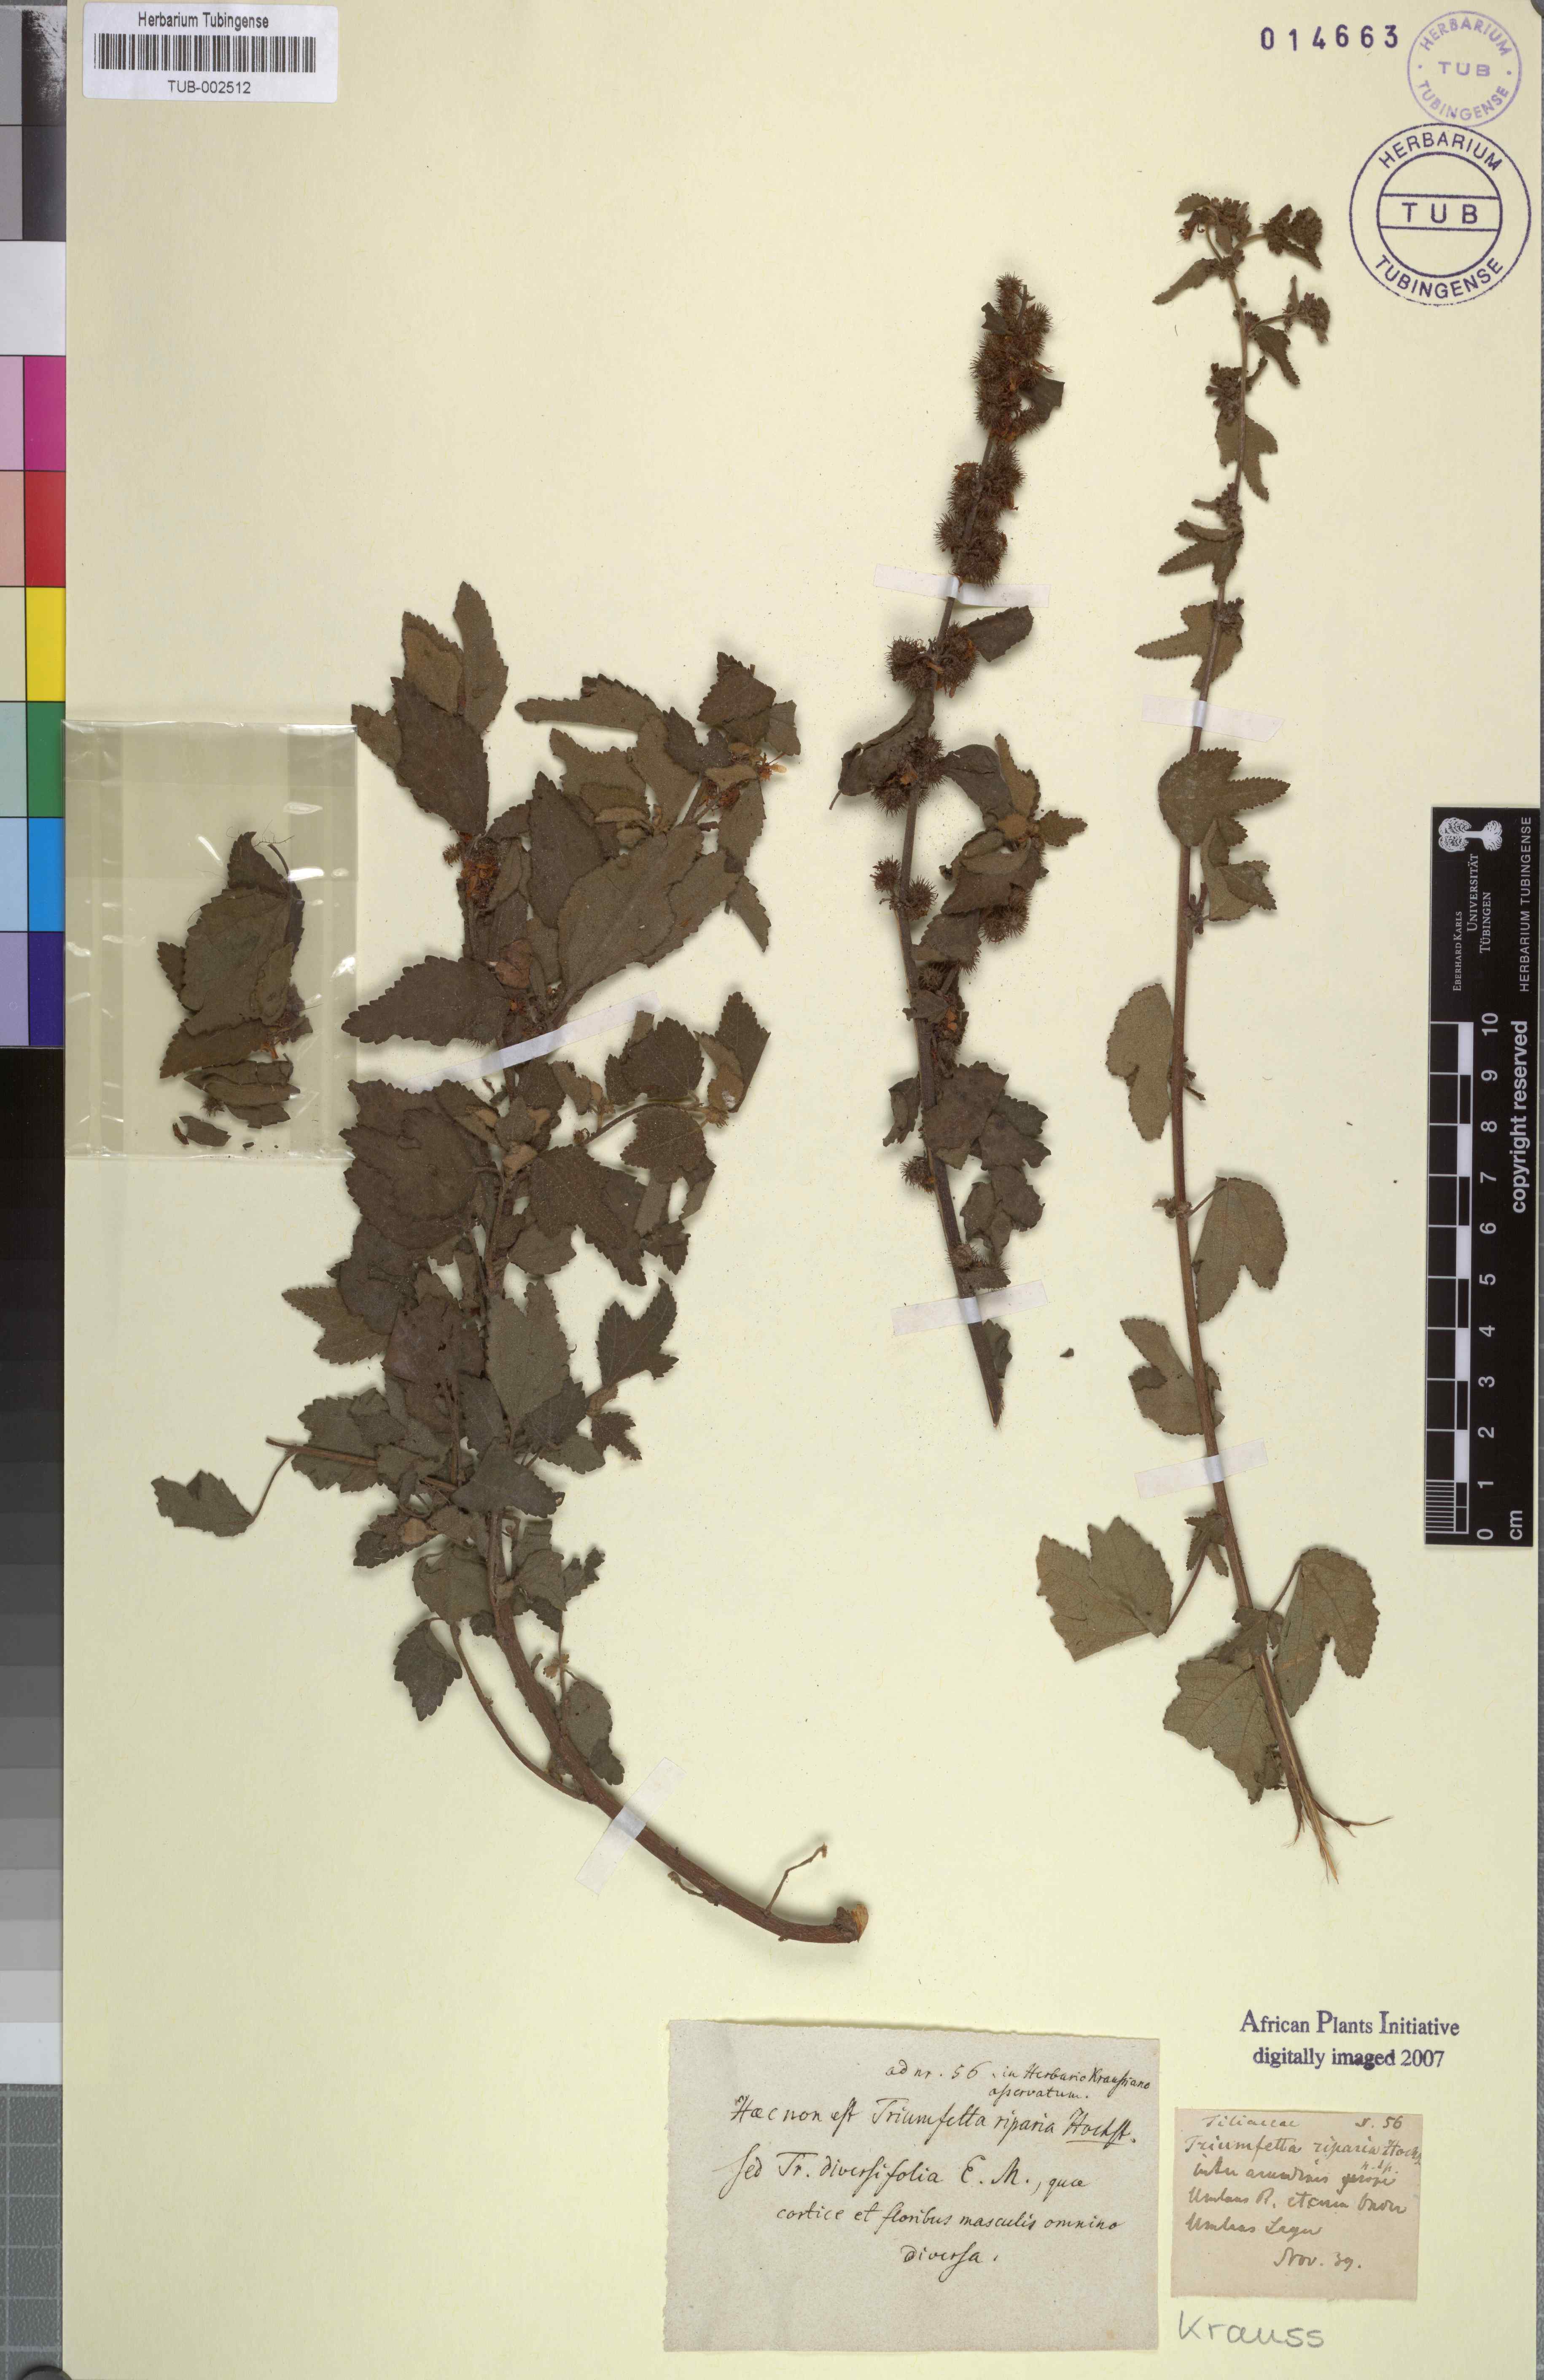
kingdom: Plantae
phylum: Tracheophyta
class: Magnoliopsida
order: Malvales
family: Malvaceae
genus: Triumfetta
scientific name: Triumfetta rhomboidea
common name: Diamond burbark
